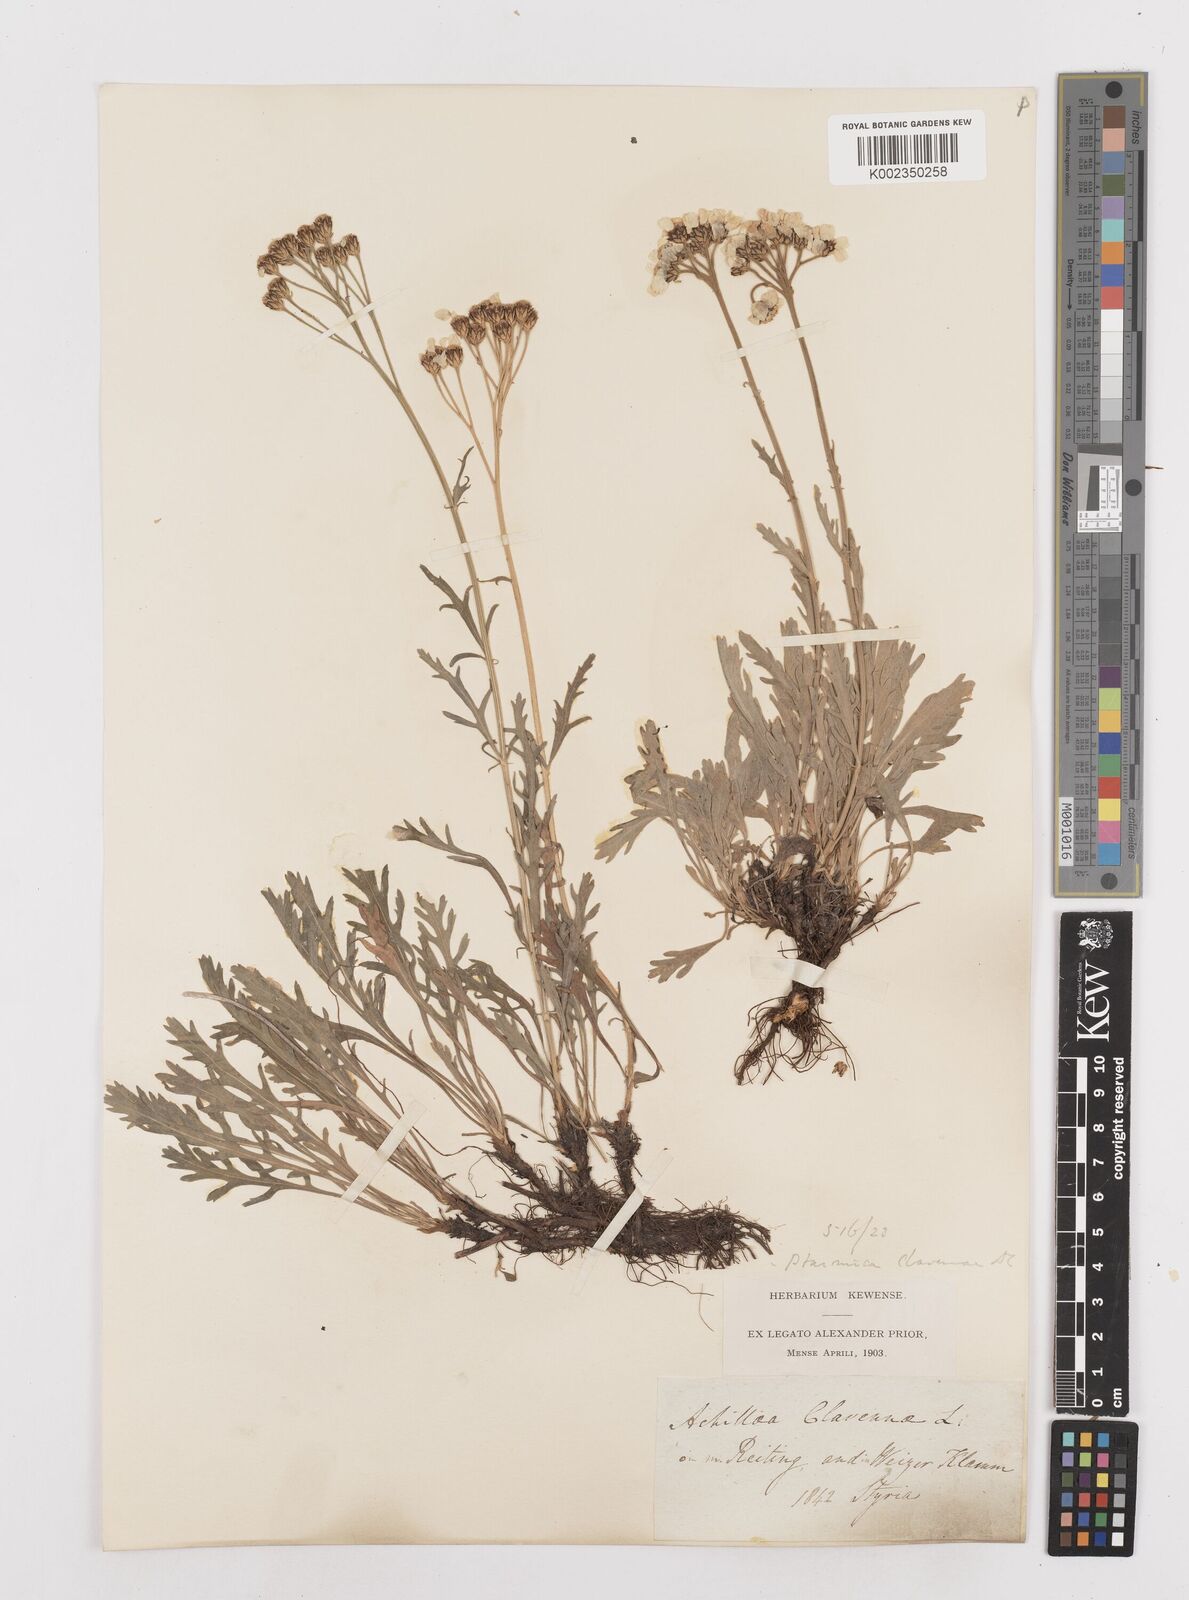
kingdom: Plantae
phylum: Tracheophyta
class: Magnoliopsida
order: Asterales
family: Asteraceae
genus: Achillea
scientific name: Achillea clavennae
